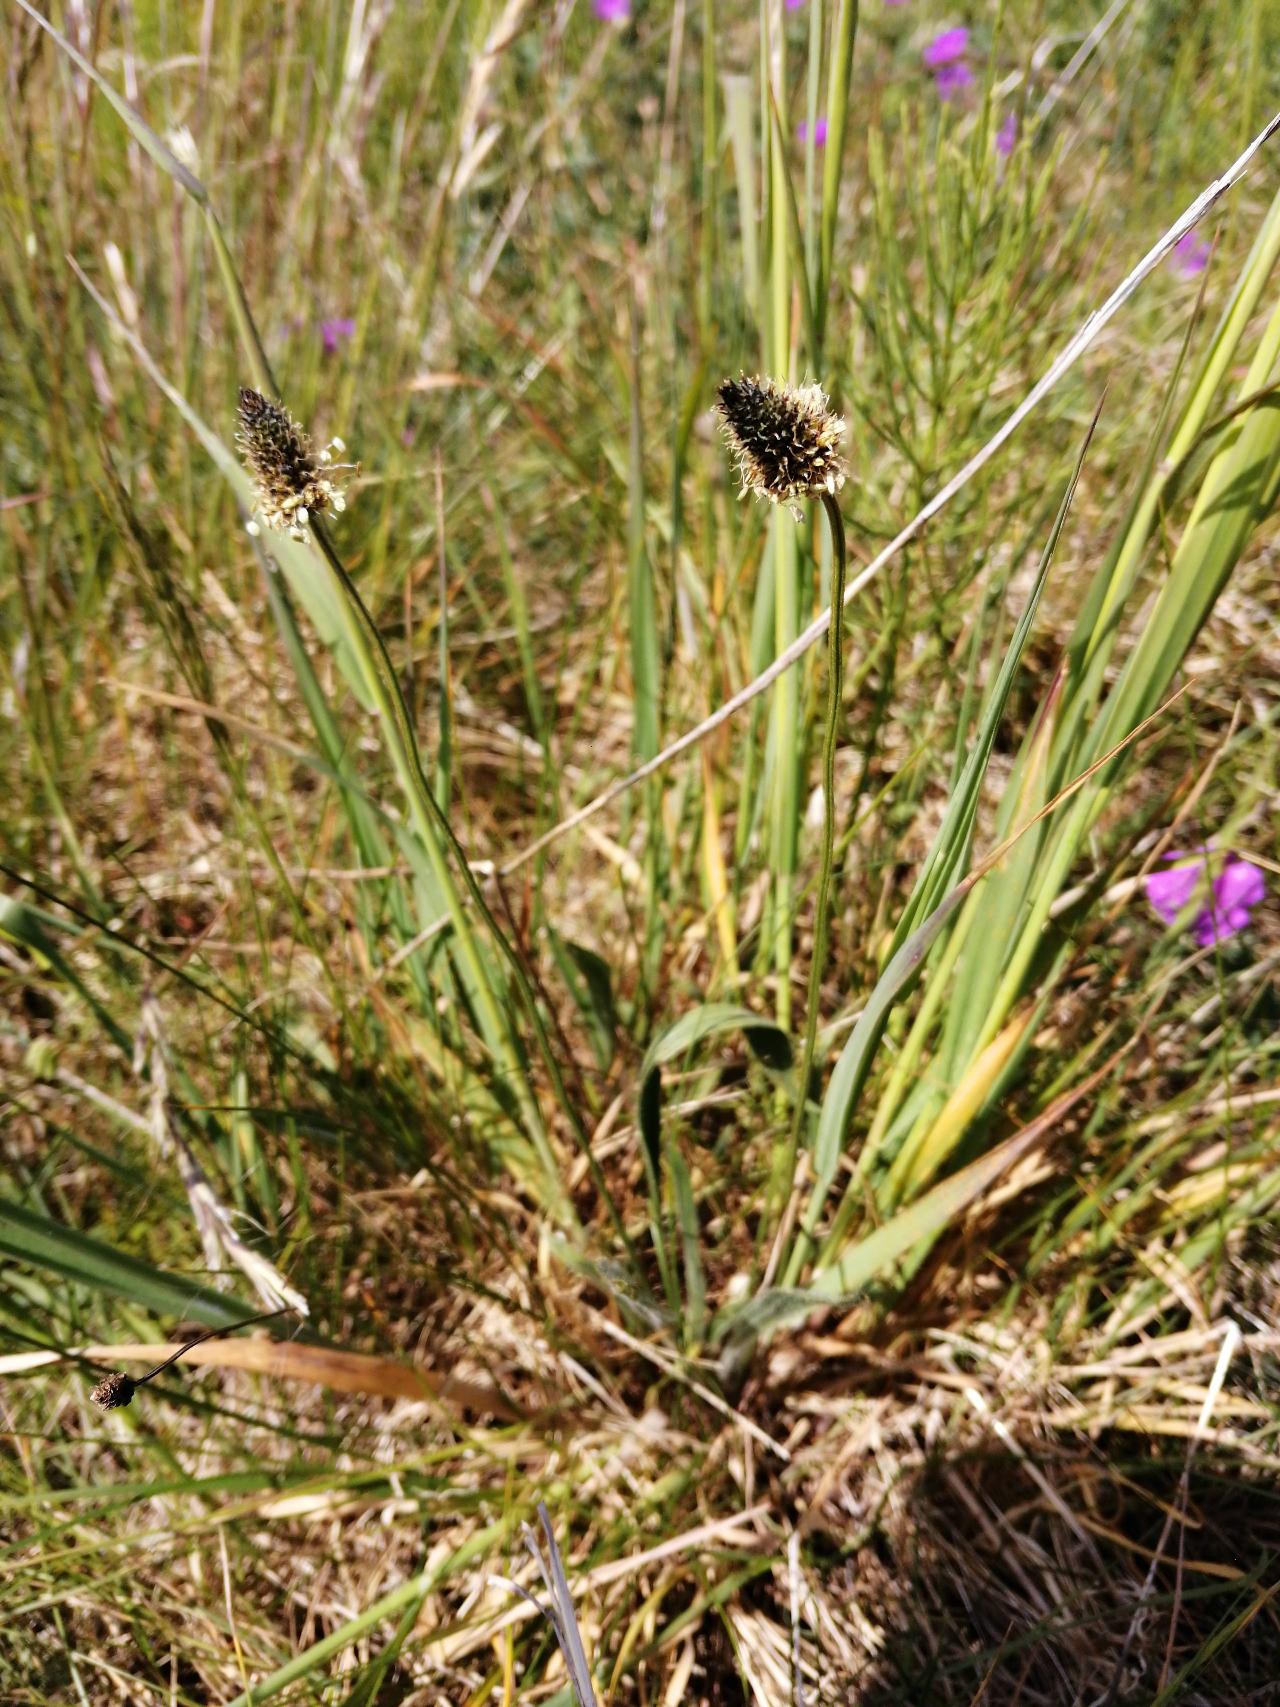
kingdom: Plantae
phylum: Tracheophyta
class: Magnoliopsida
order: Lamiales
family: Plantaginaceae
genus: Plantago
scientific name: Plantago lanceolata
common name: Lancet-vejbred
